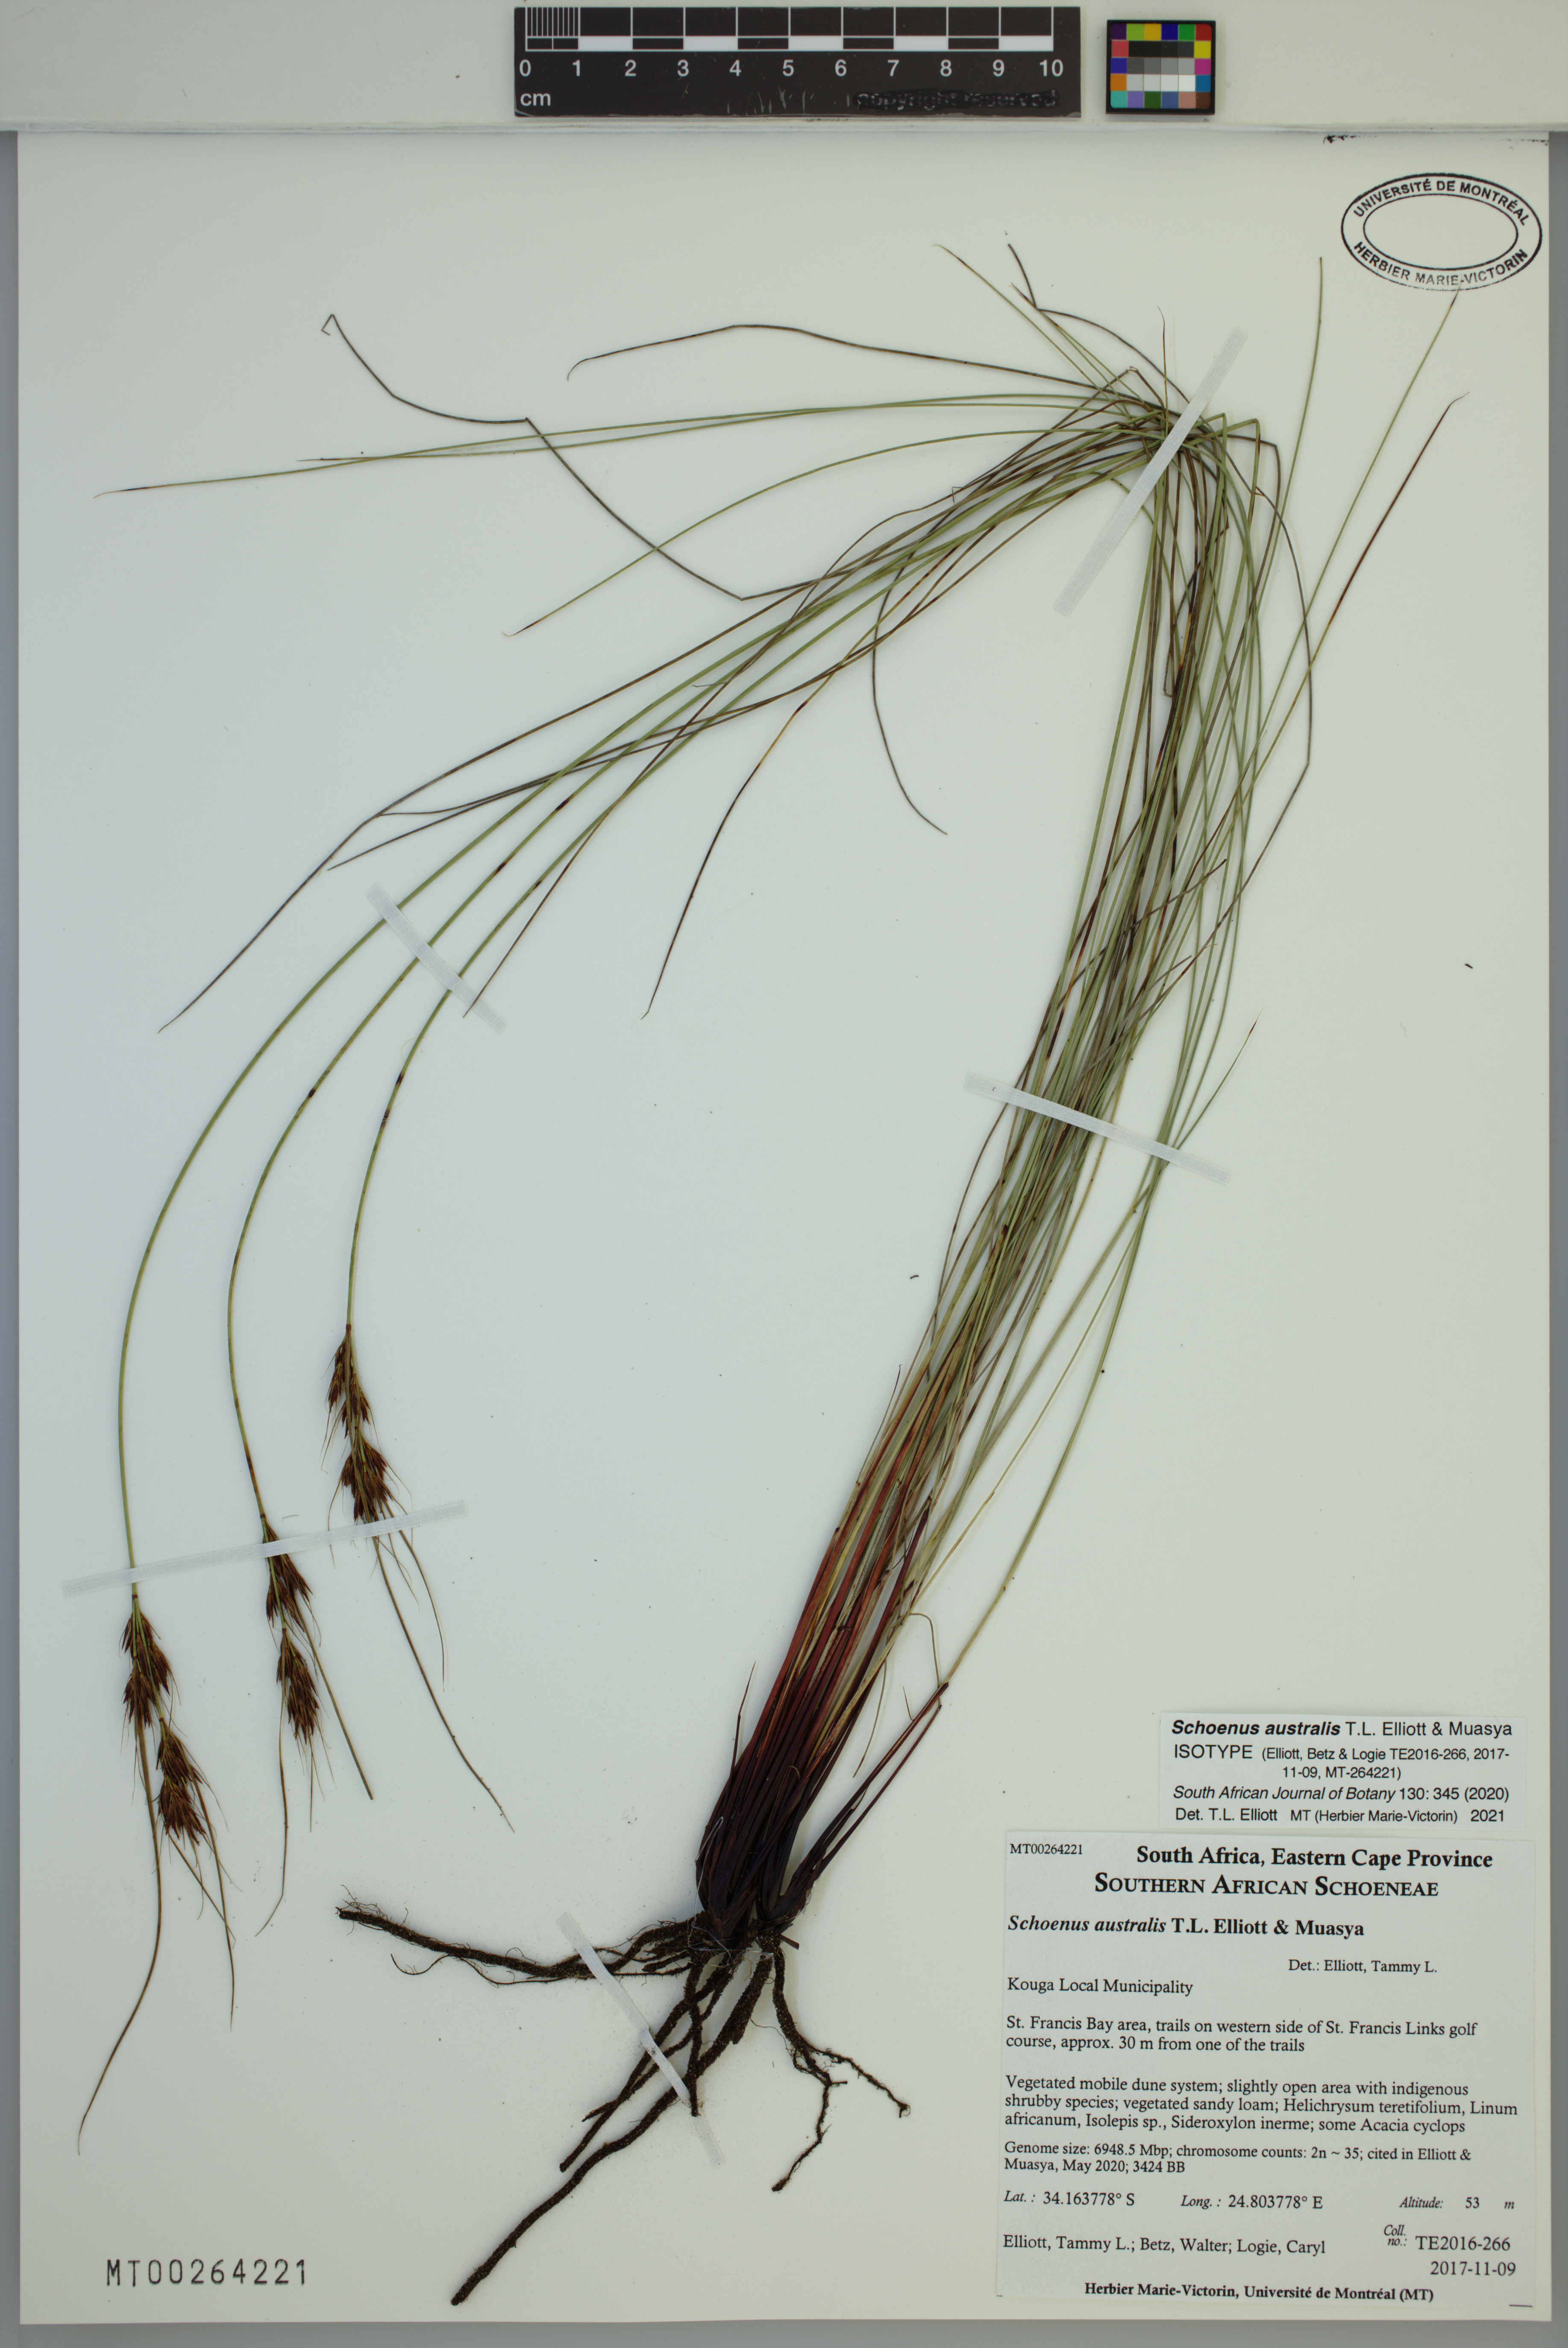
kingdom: Plantae
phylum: Tracheophyta
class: Liliopsida
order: Poales
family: Cyperaceae
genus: Schoenus
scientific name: Schoenus australis
